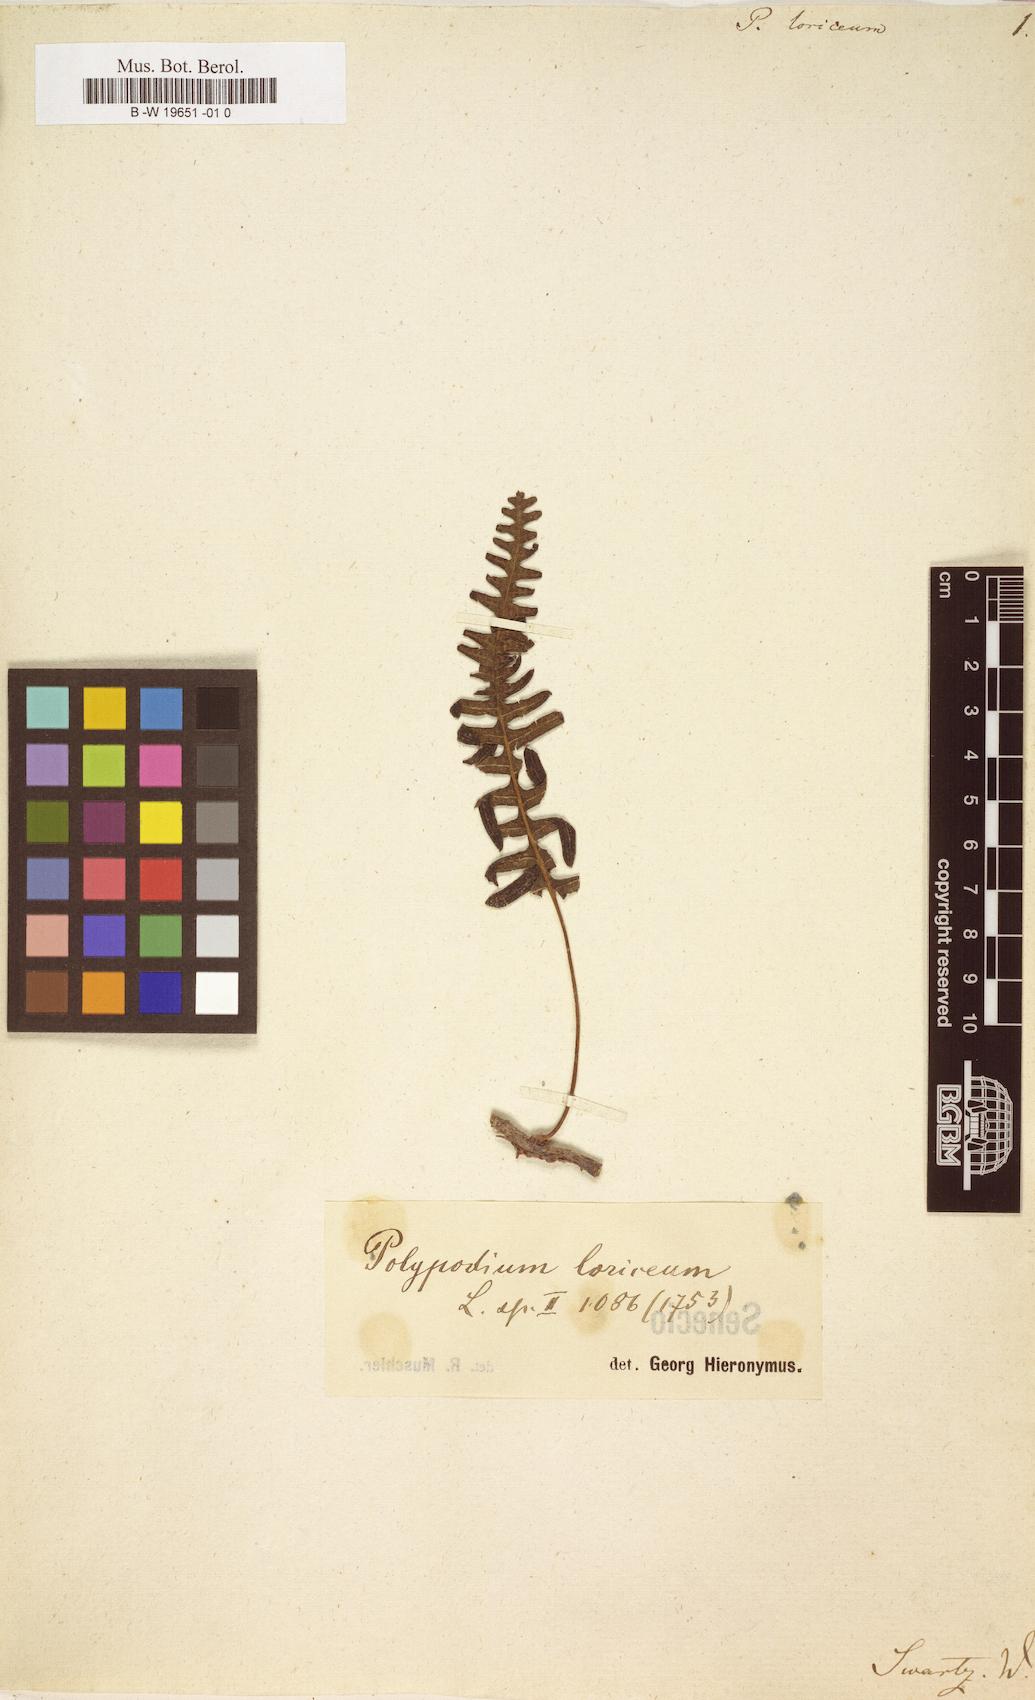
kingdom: Plantae
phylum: Tracheophyta
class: Polypodiopsida
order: Polypodiales
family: Polypodiaceae
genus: Serpocaulon
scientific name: Serpocaulon loriceum
